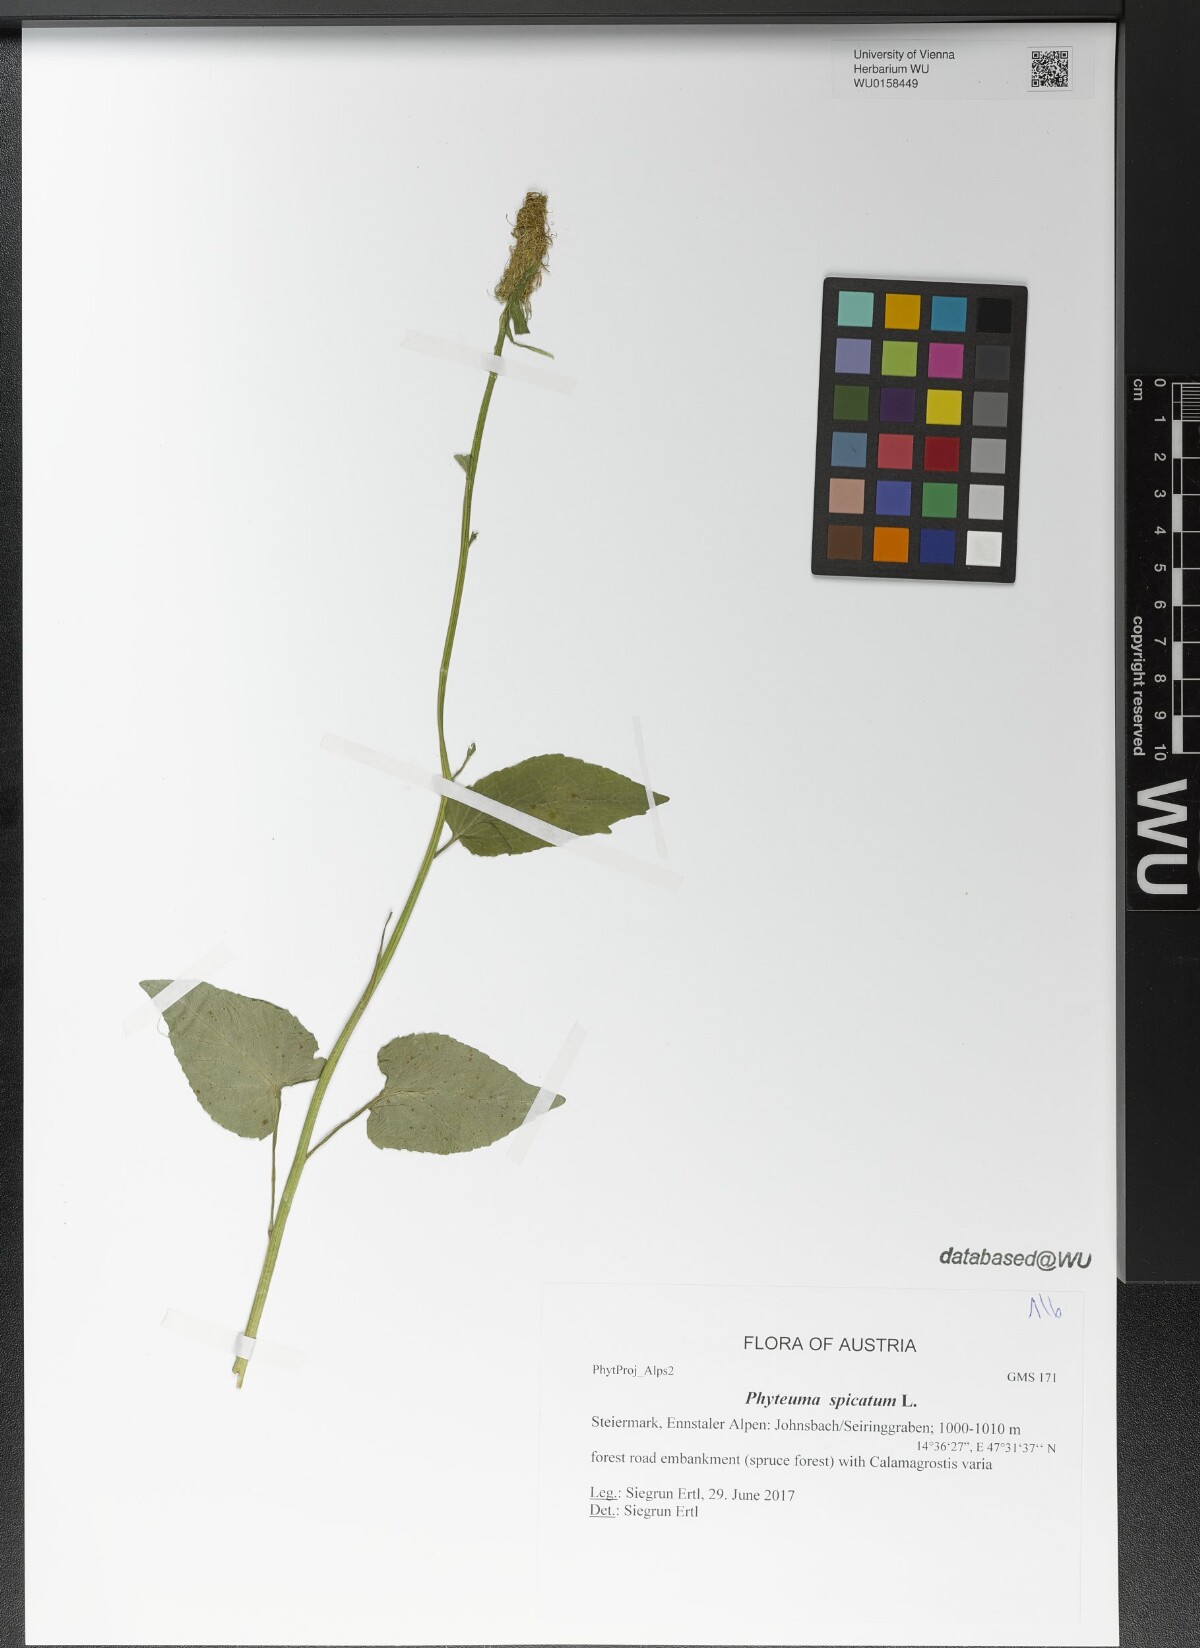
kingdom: Plantae
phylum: Tracheophyta
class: Magnoliopsida
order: Asterales
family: Campanulaceae
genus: Phyteuma
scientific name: Phyteuma spicatum
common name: Spiked rampion
